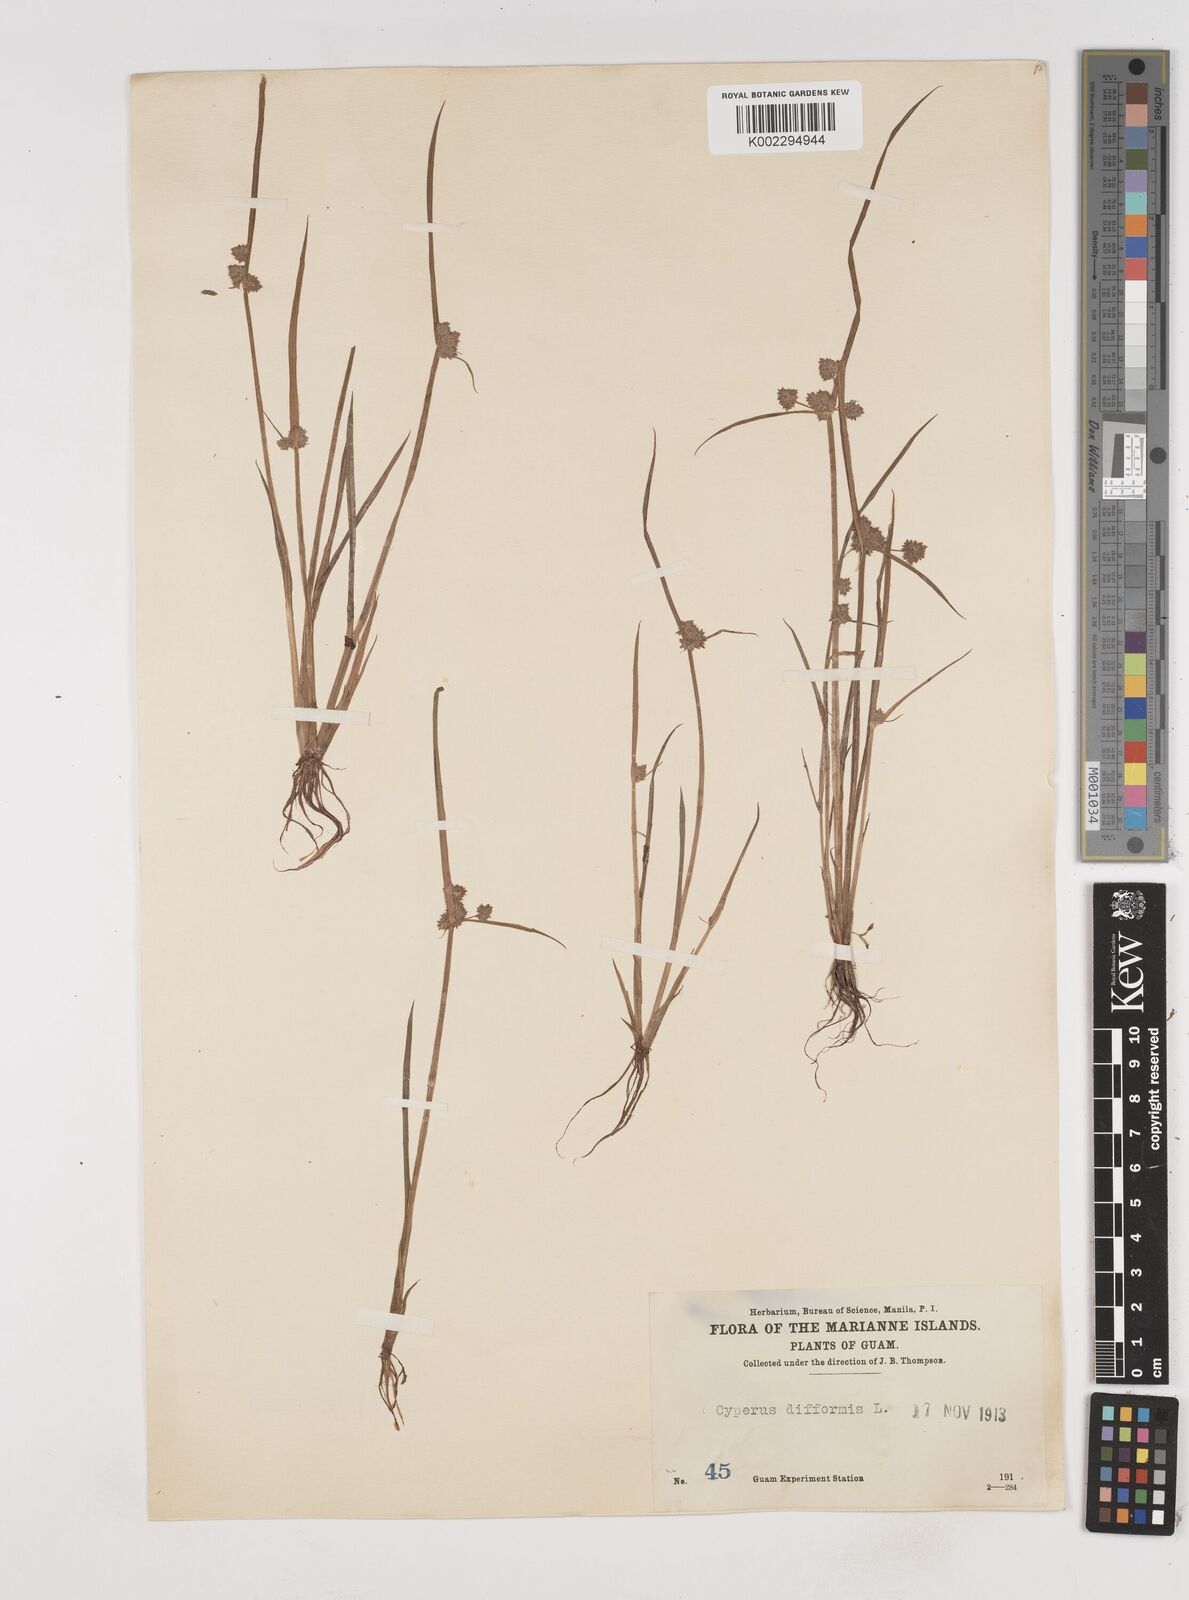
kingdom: Plantae
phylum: Tracheophyta
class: Liliopsida
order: Poales
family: Cyperaceae
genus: Cyperus
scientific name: Cyperus difformis
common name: Variable flatsedge
